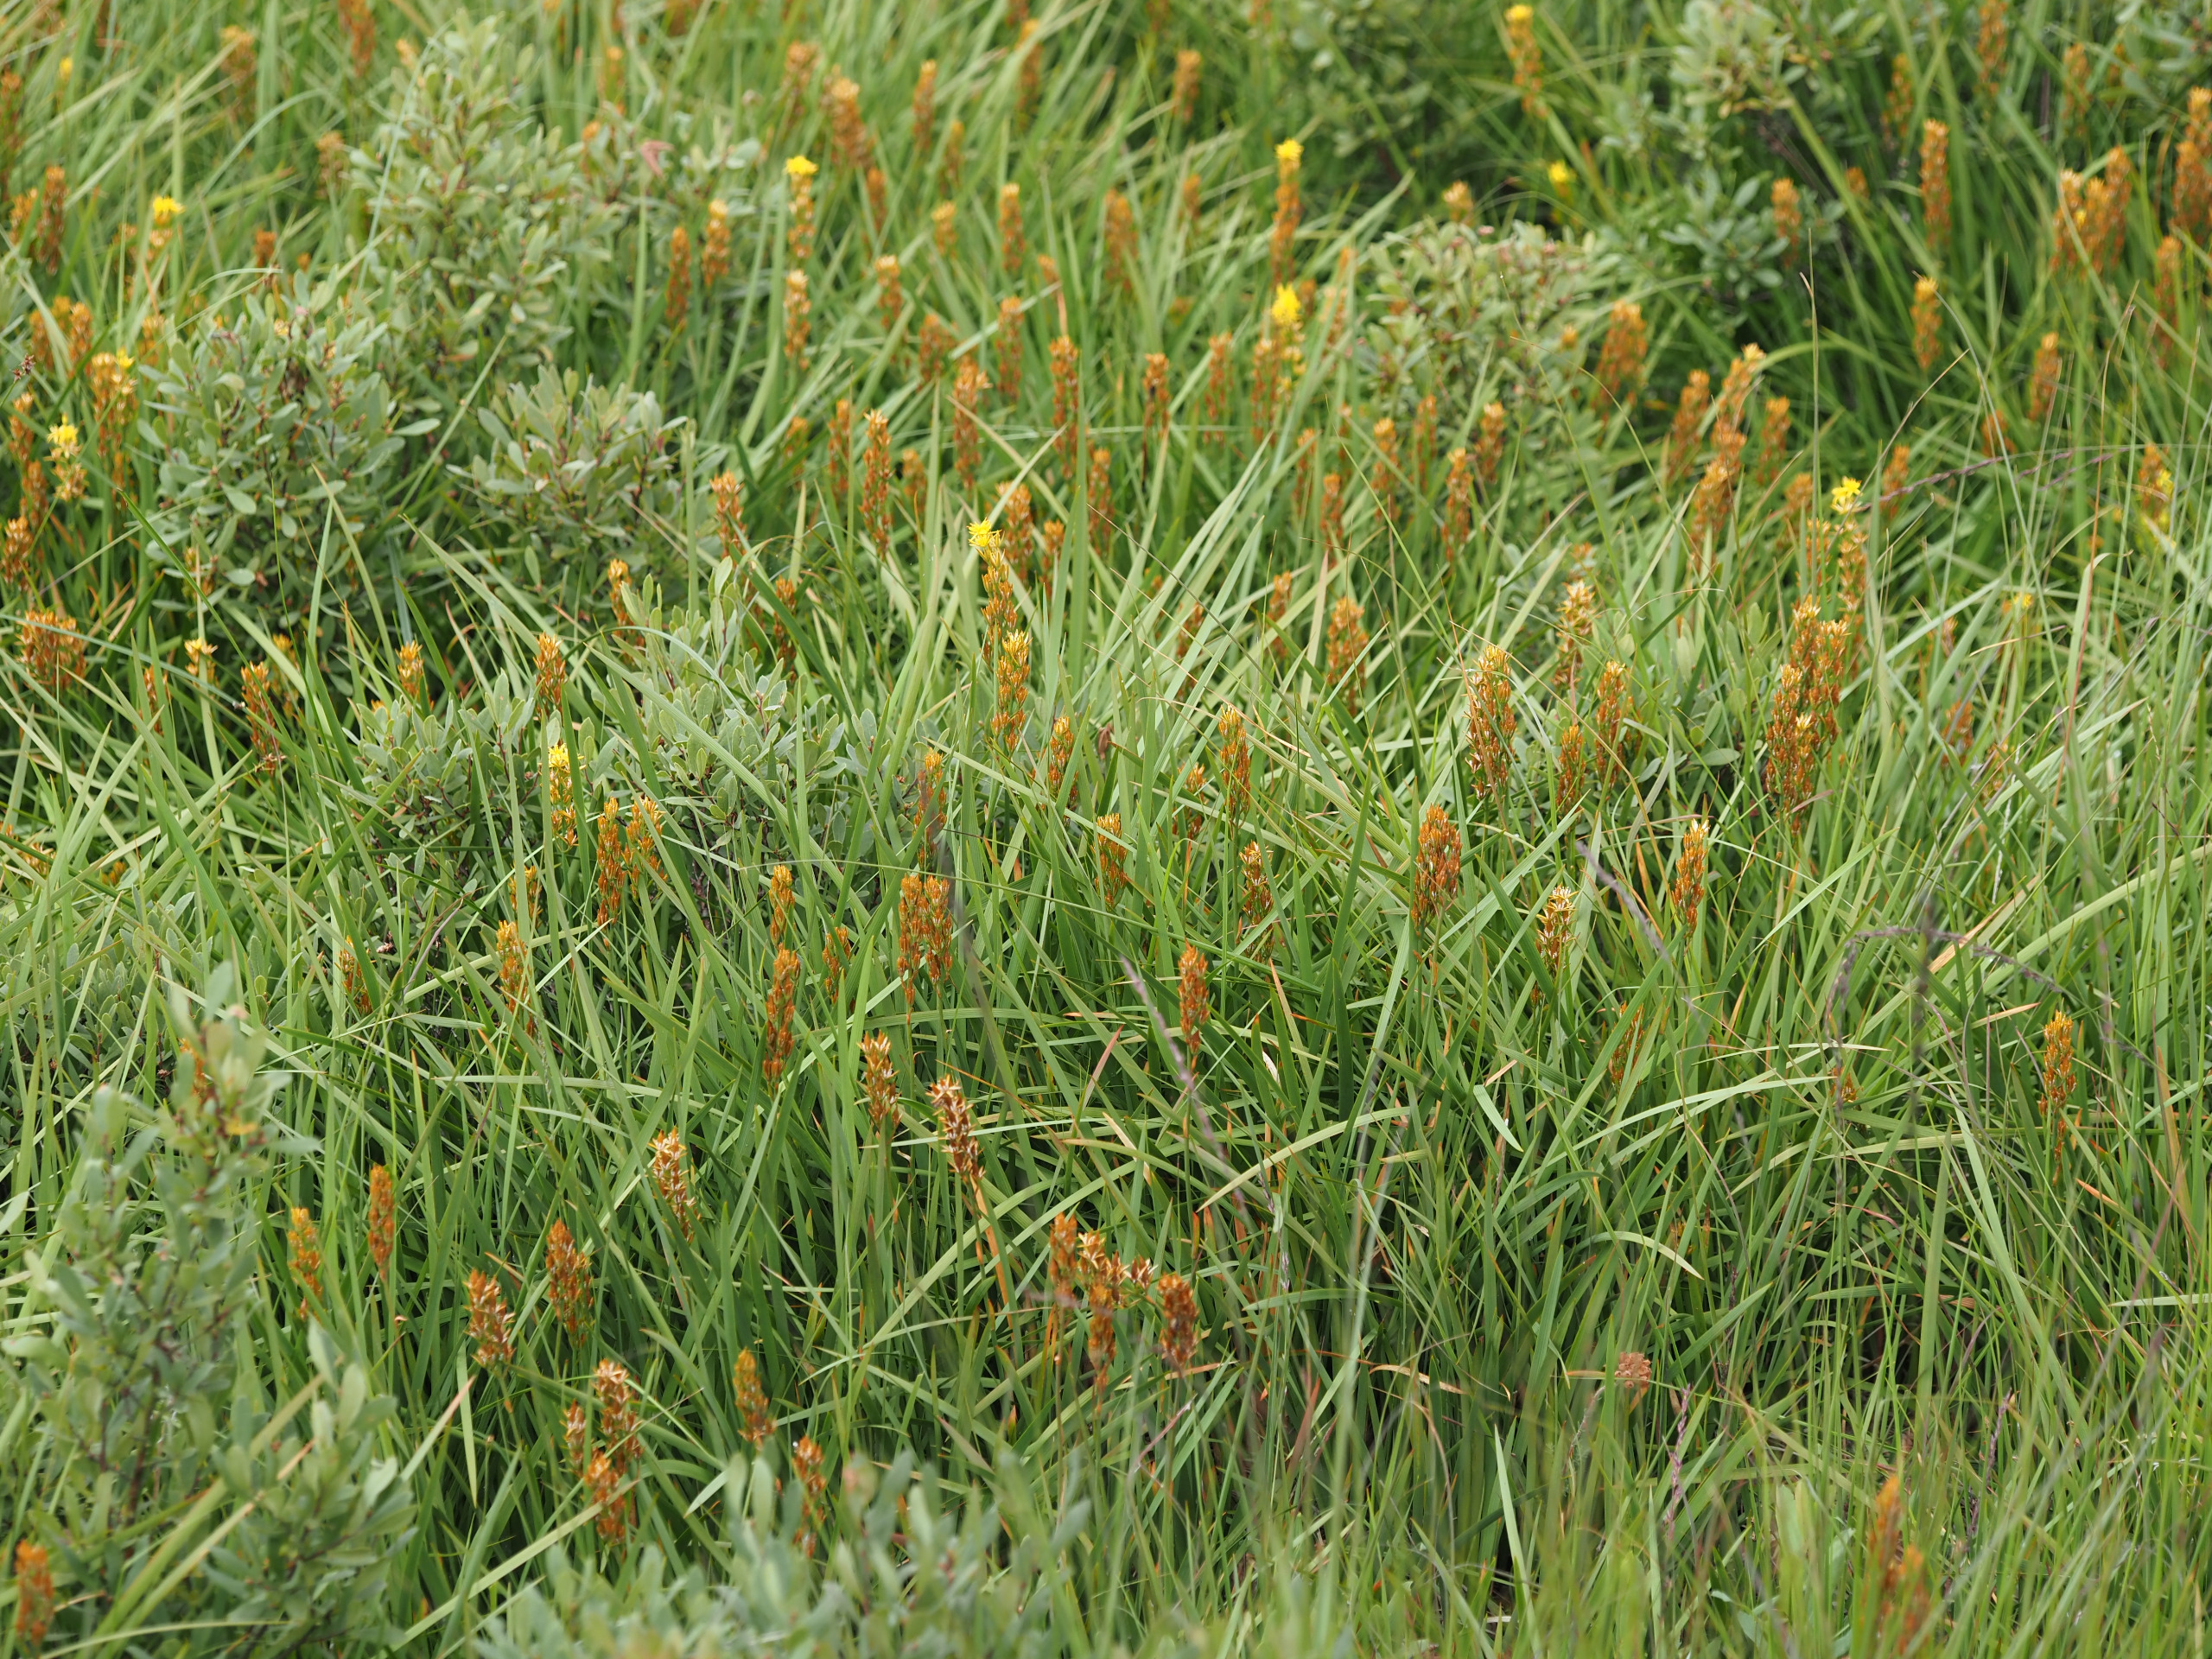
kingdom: Plantae
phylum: Tracheophyta
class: Liliopsida
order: Dioscoreales
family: Nartheciaceae
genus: Narthecium
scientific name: Narthecium ossifragum
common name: Benbræk
